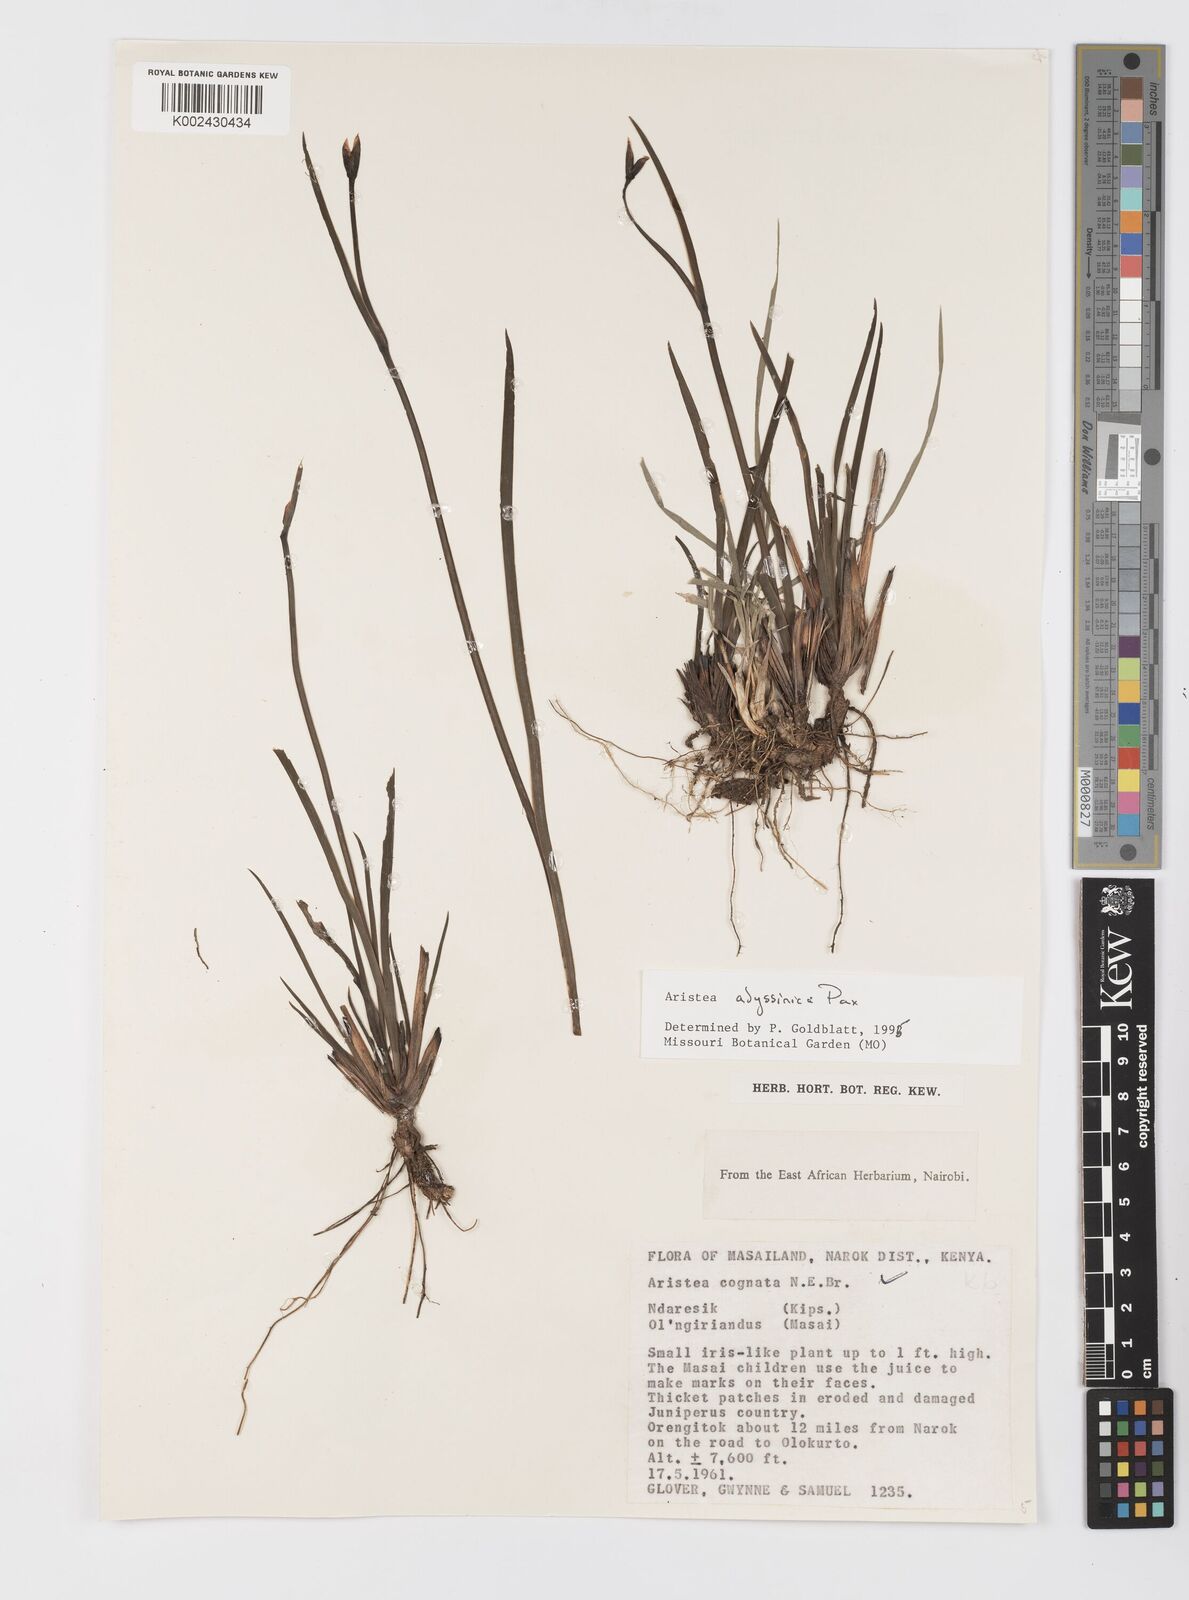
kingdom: Plantae
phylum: Tracheophyta
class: Liliopsida
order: Asparagales
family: Iridaceae
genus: Aristea
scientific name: Aristea abyssinica
